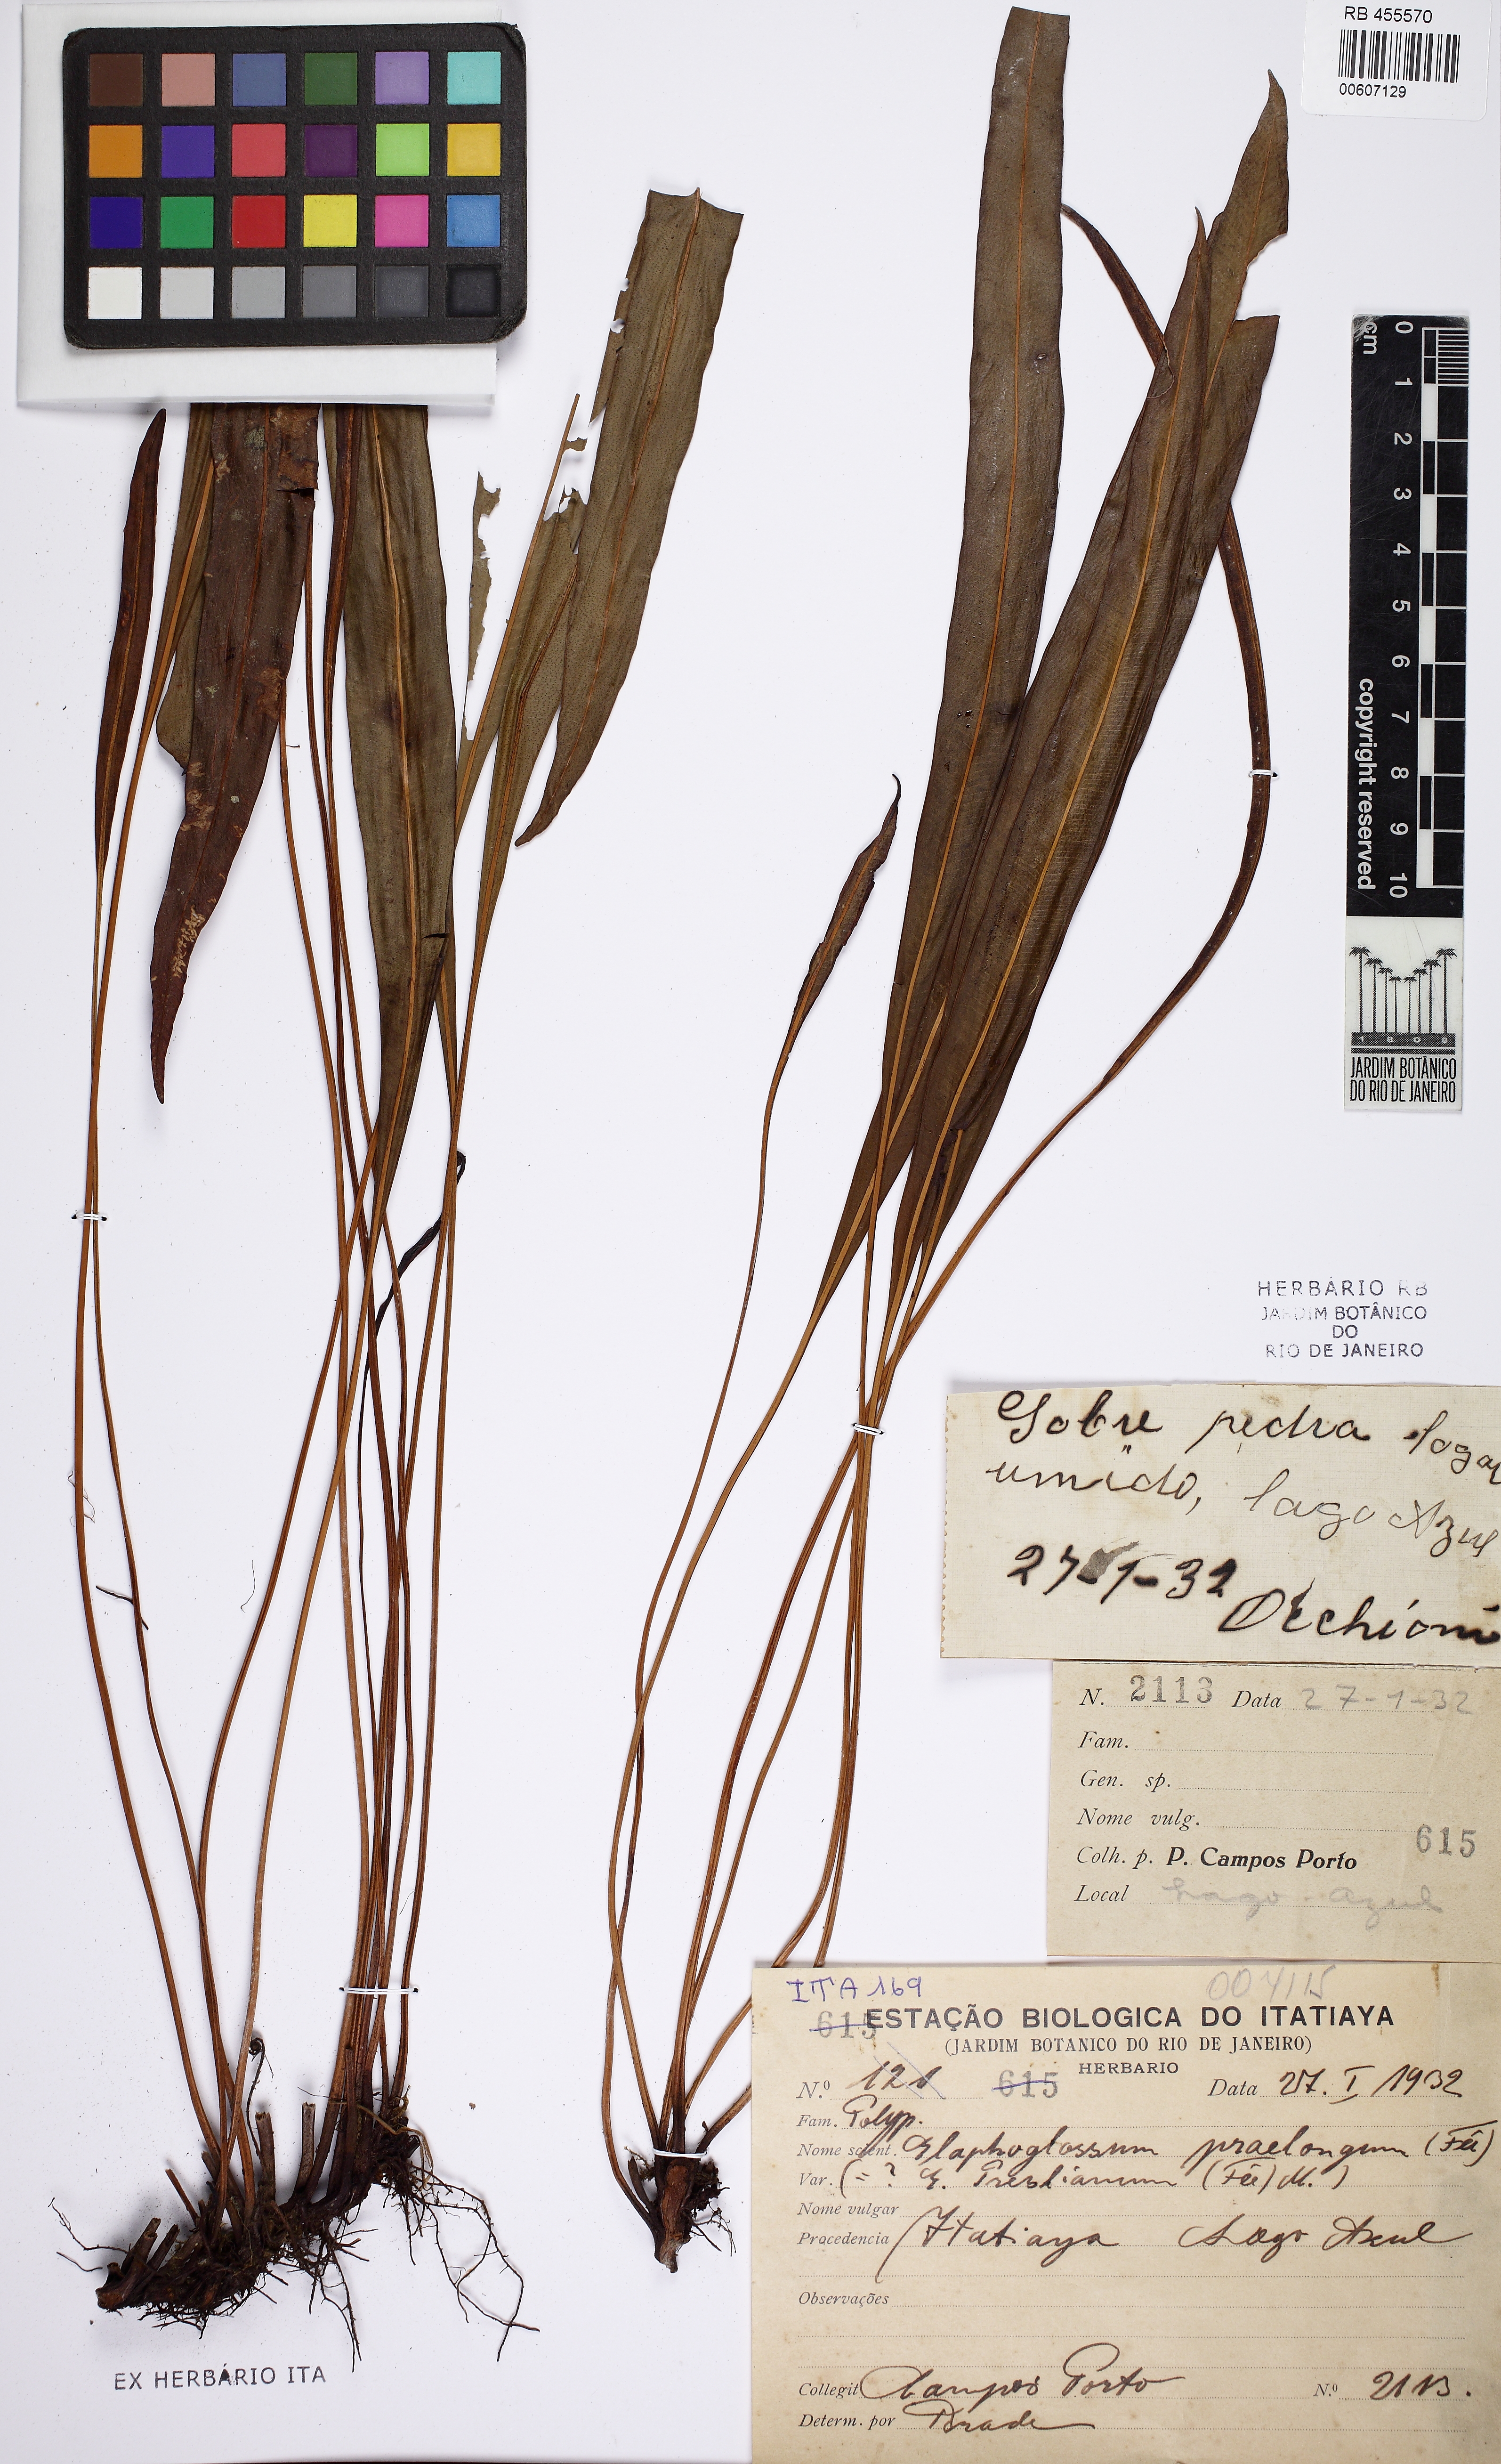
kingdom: Plantae
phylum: Tracheophyta
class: Polypodiopsida
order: Polypodiales
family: Dryopteridaceae
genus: Elaphoglossum
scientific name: Elaphoglossum burchellii
